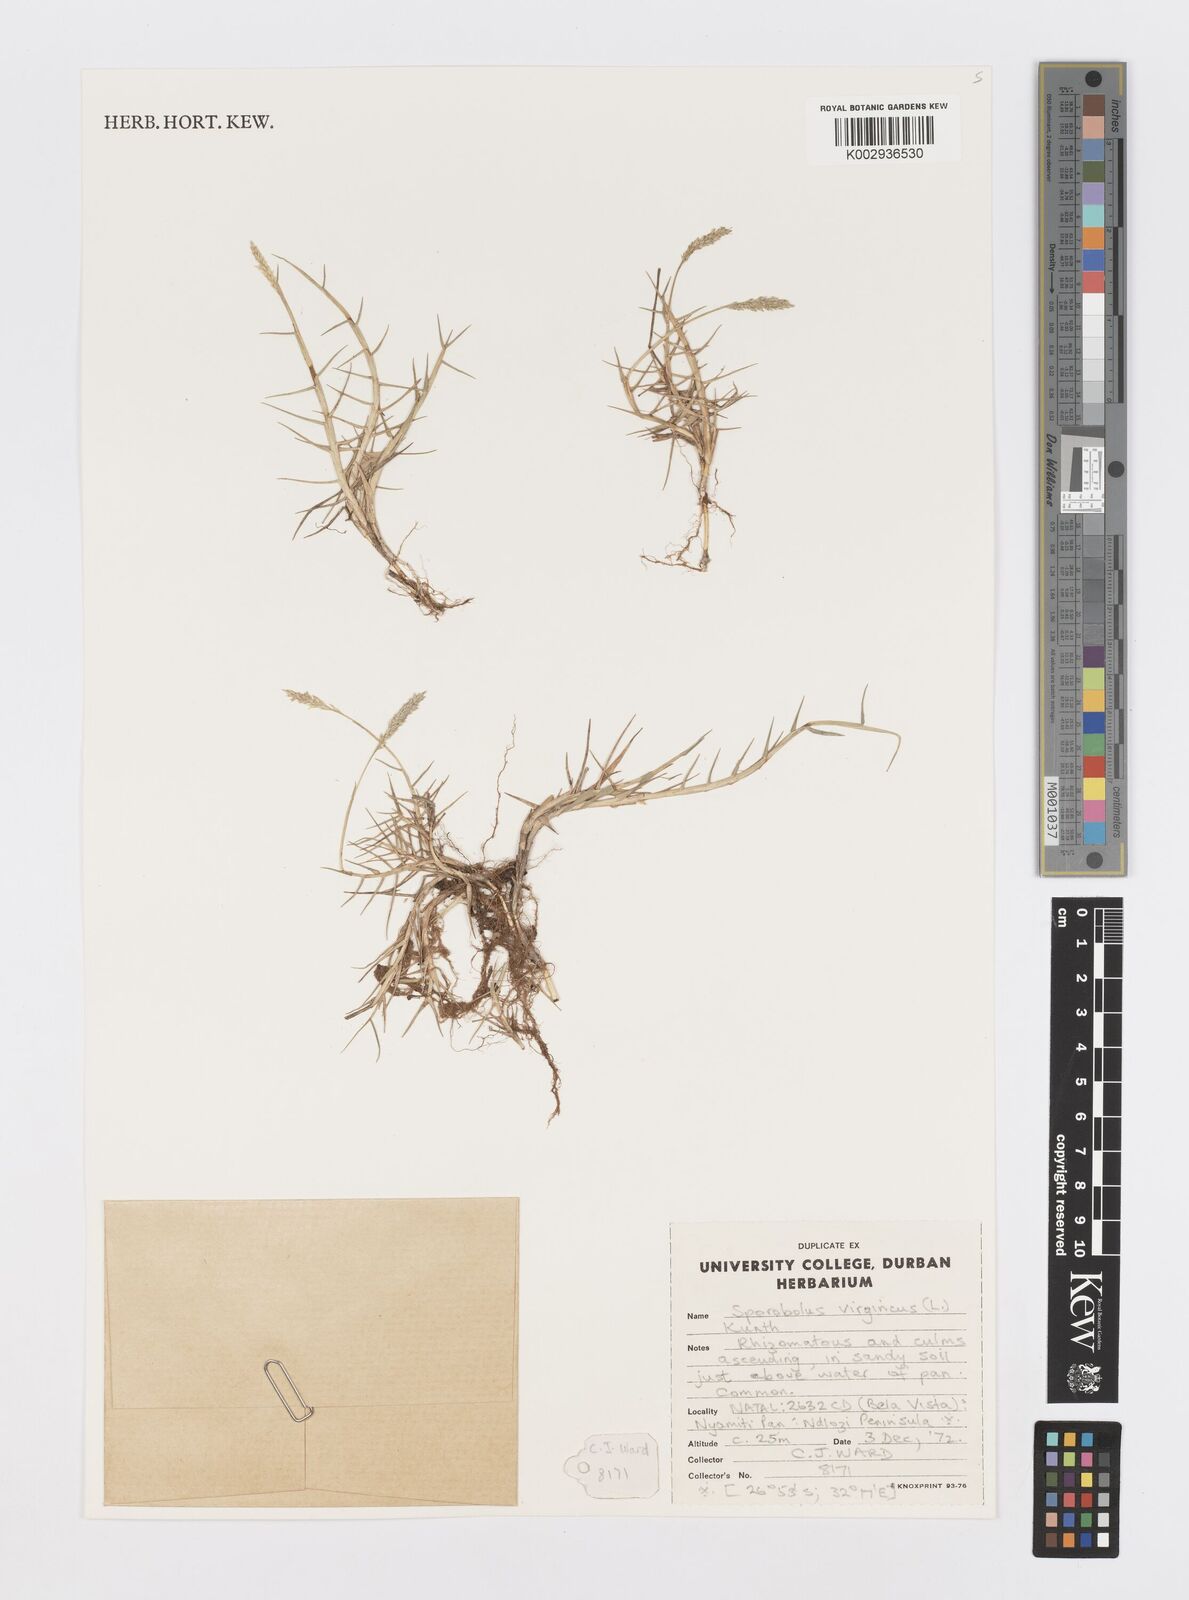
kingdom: Plantae
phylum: Tracheophyta
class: Liliopsida
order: Poales
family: Poaceae
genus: Sporobolus
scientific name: Sporobolus virginicus
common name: Beach dropseed
